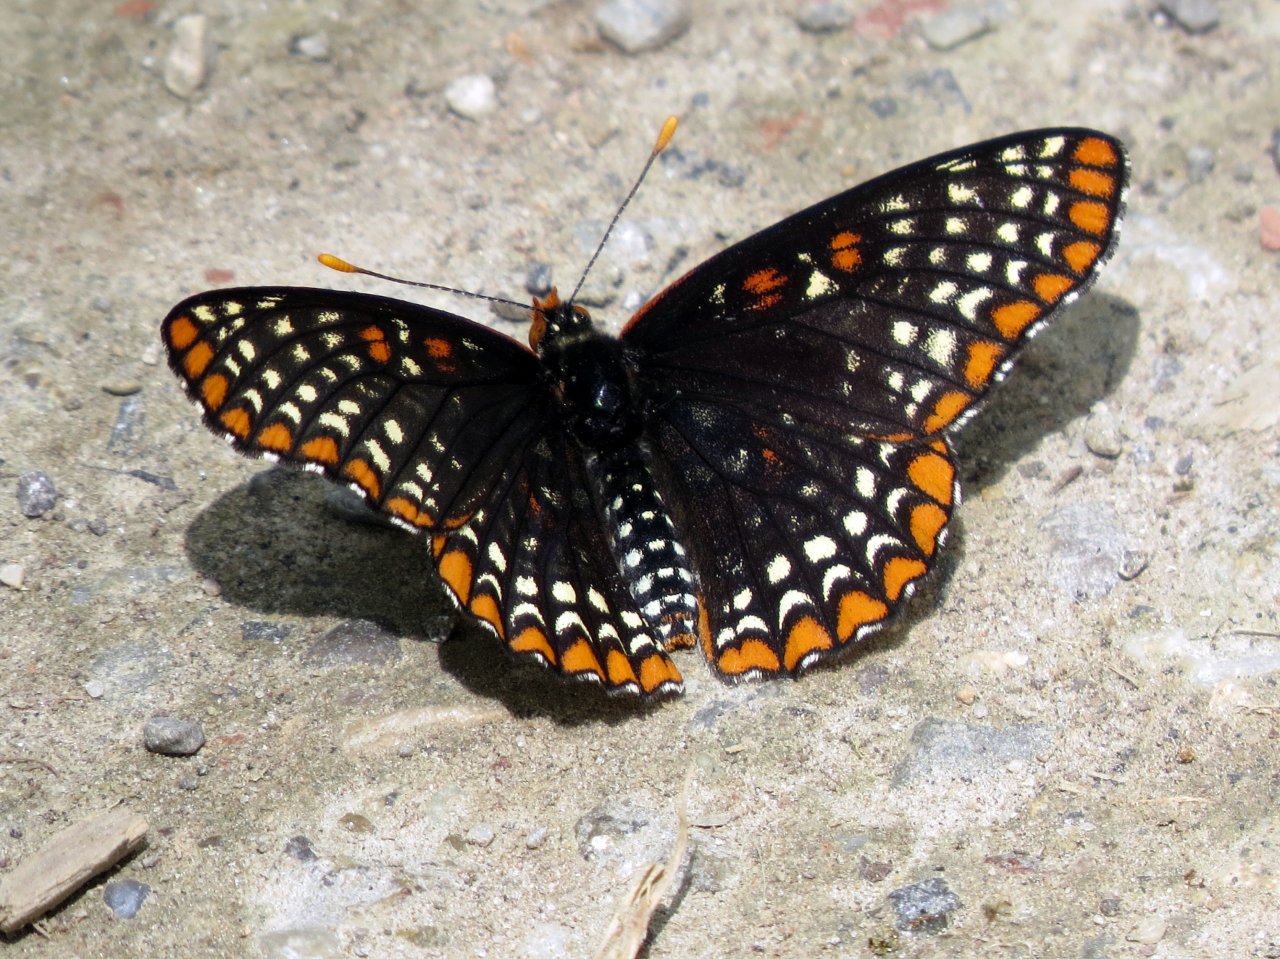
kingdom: Animalia
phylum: Arthropoda
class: Insecta
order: Lepidoptera
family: Nymphalidae
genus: Euphydryas
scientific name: Euphydryas phaeton
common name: Baltimore Checkerspot
